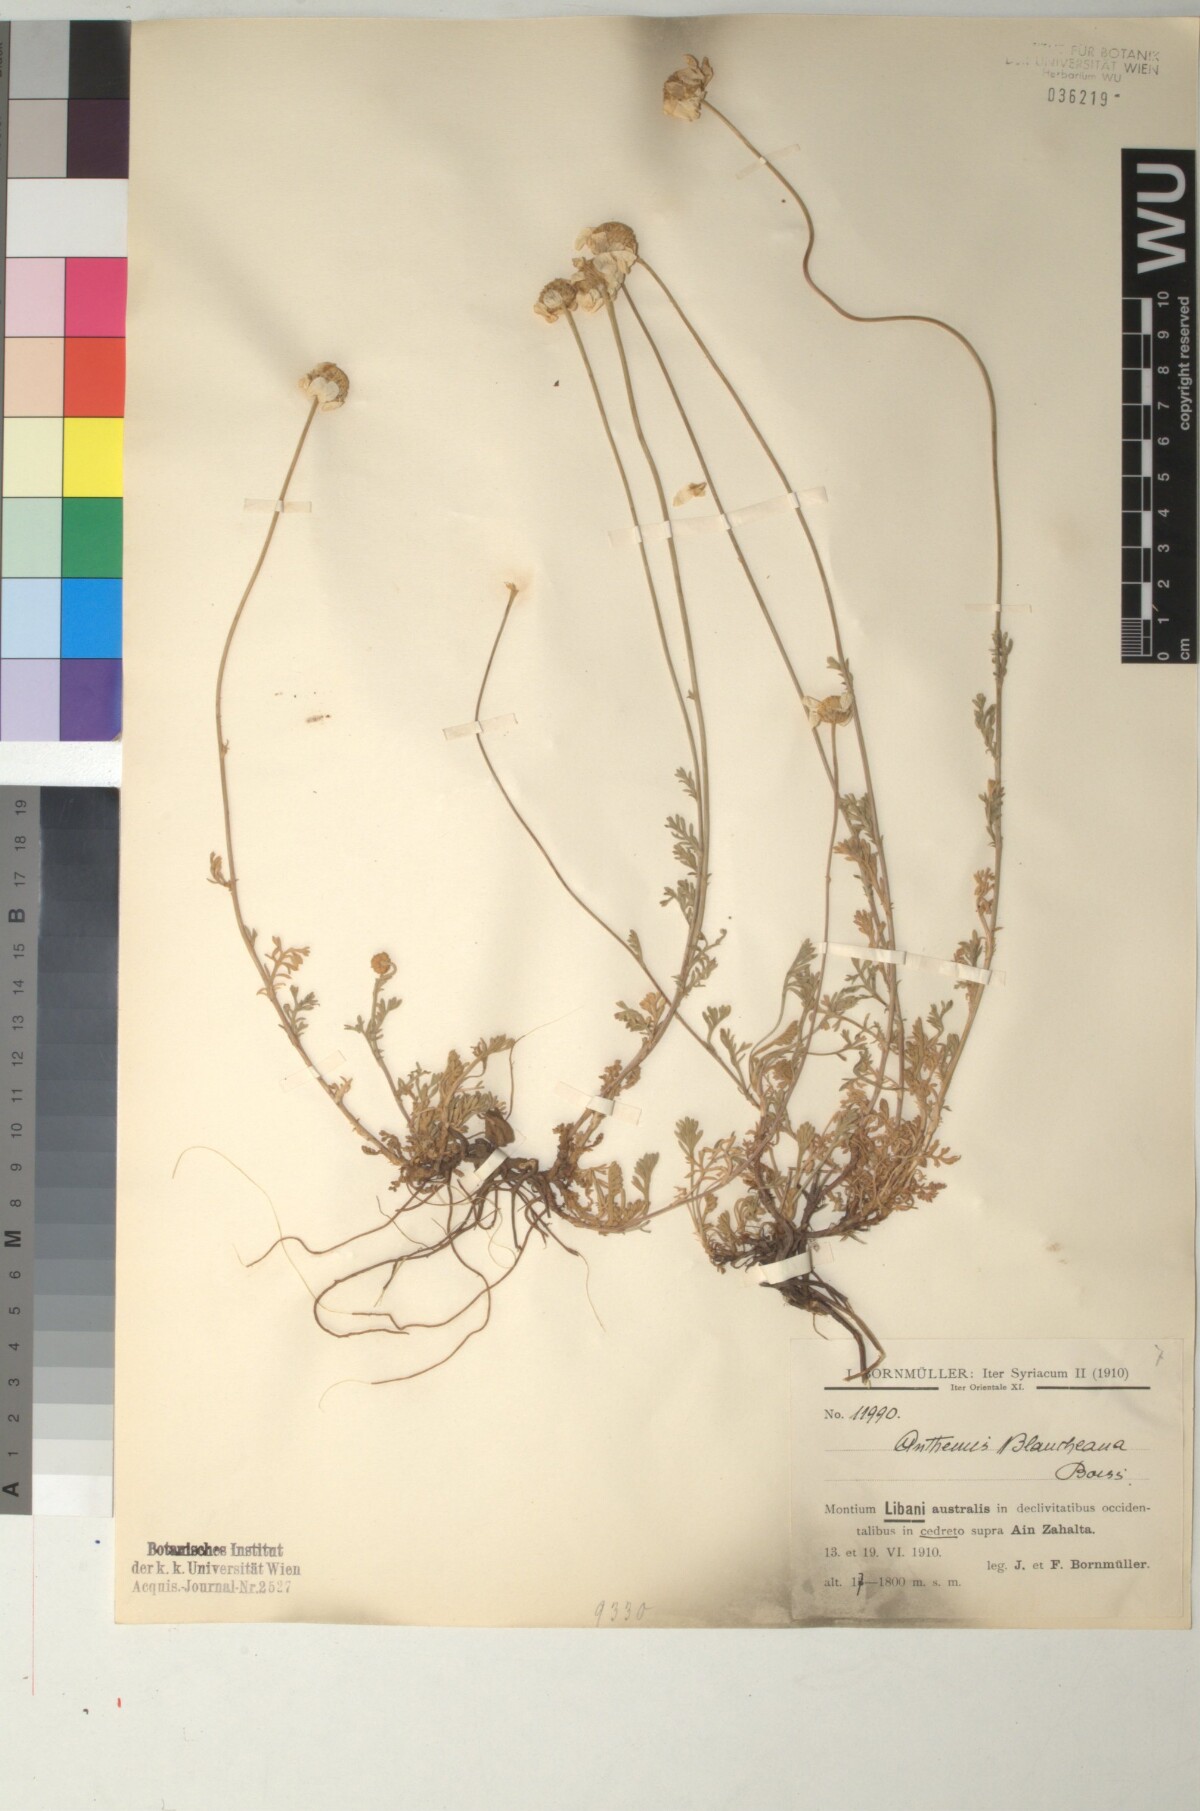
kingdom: Plantae
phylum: Tracheophyta
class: Magnoliopsida
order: Asterales
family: Asteraceae
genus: Anthemis
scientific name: Anthemis cretica
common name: Mountain dog-daisy
